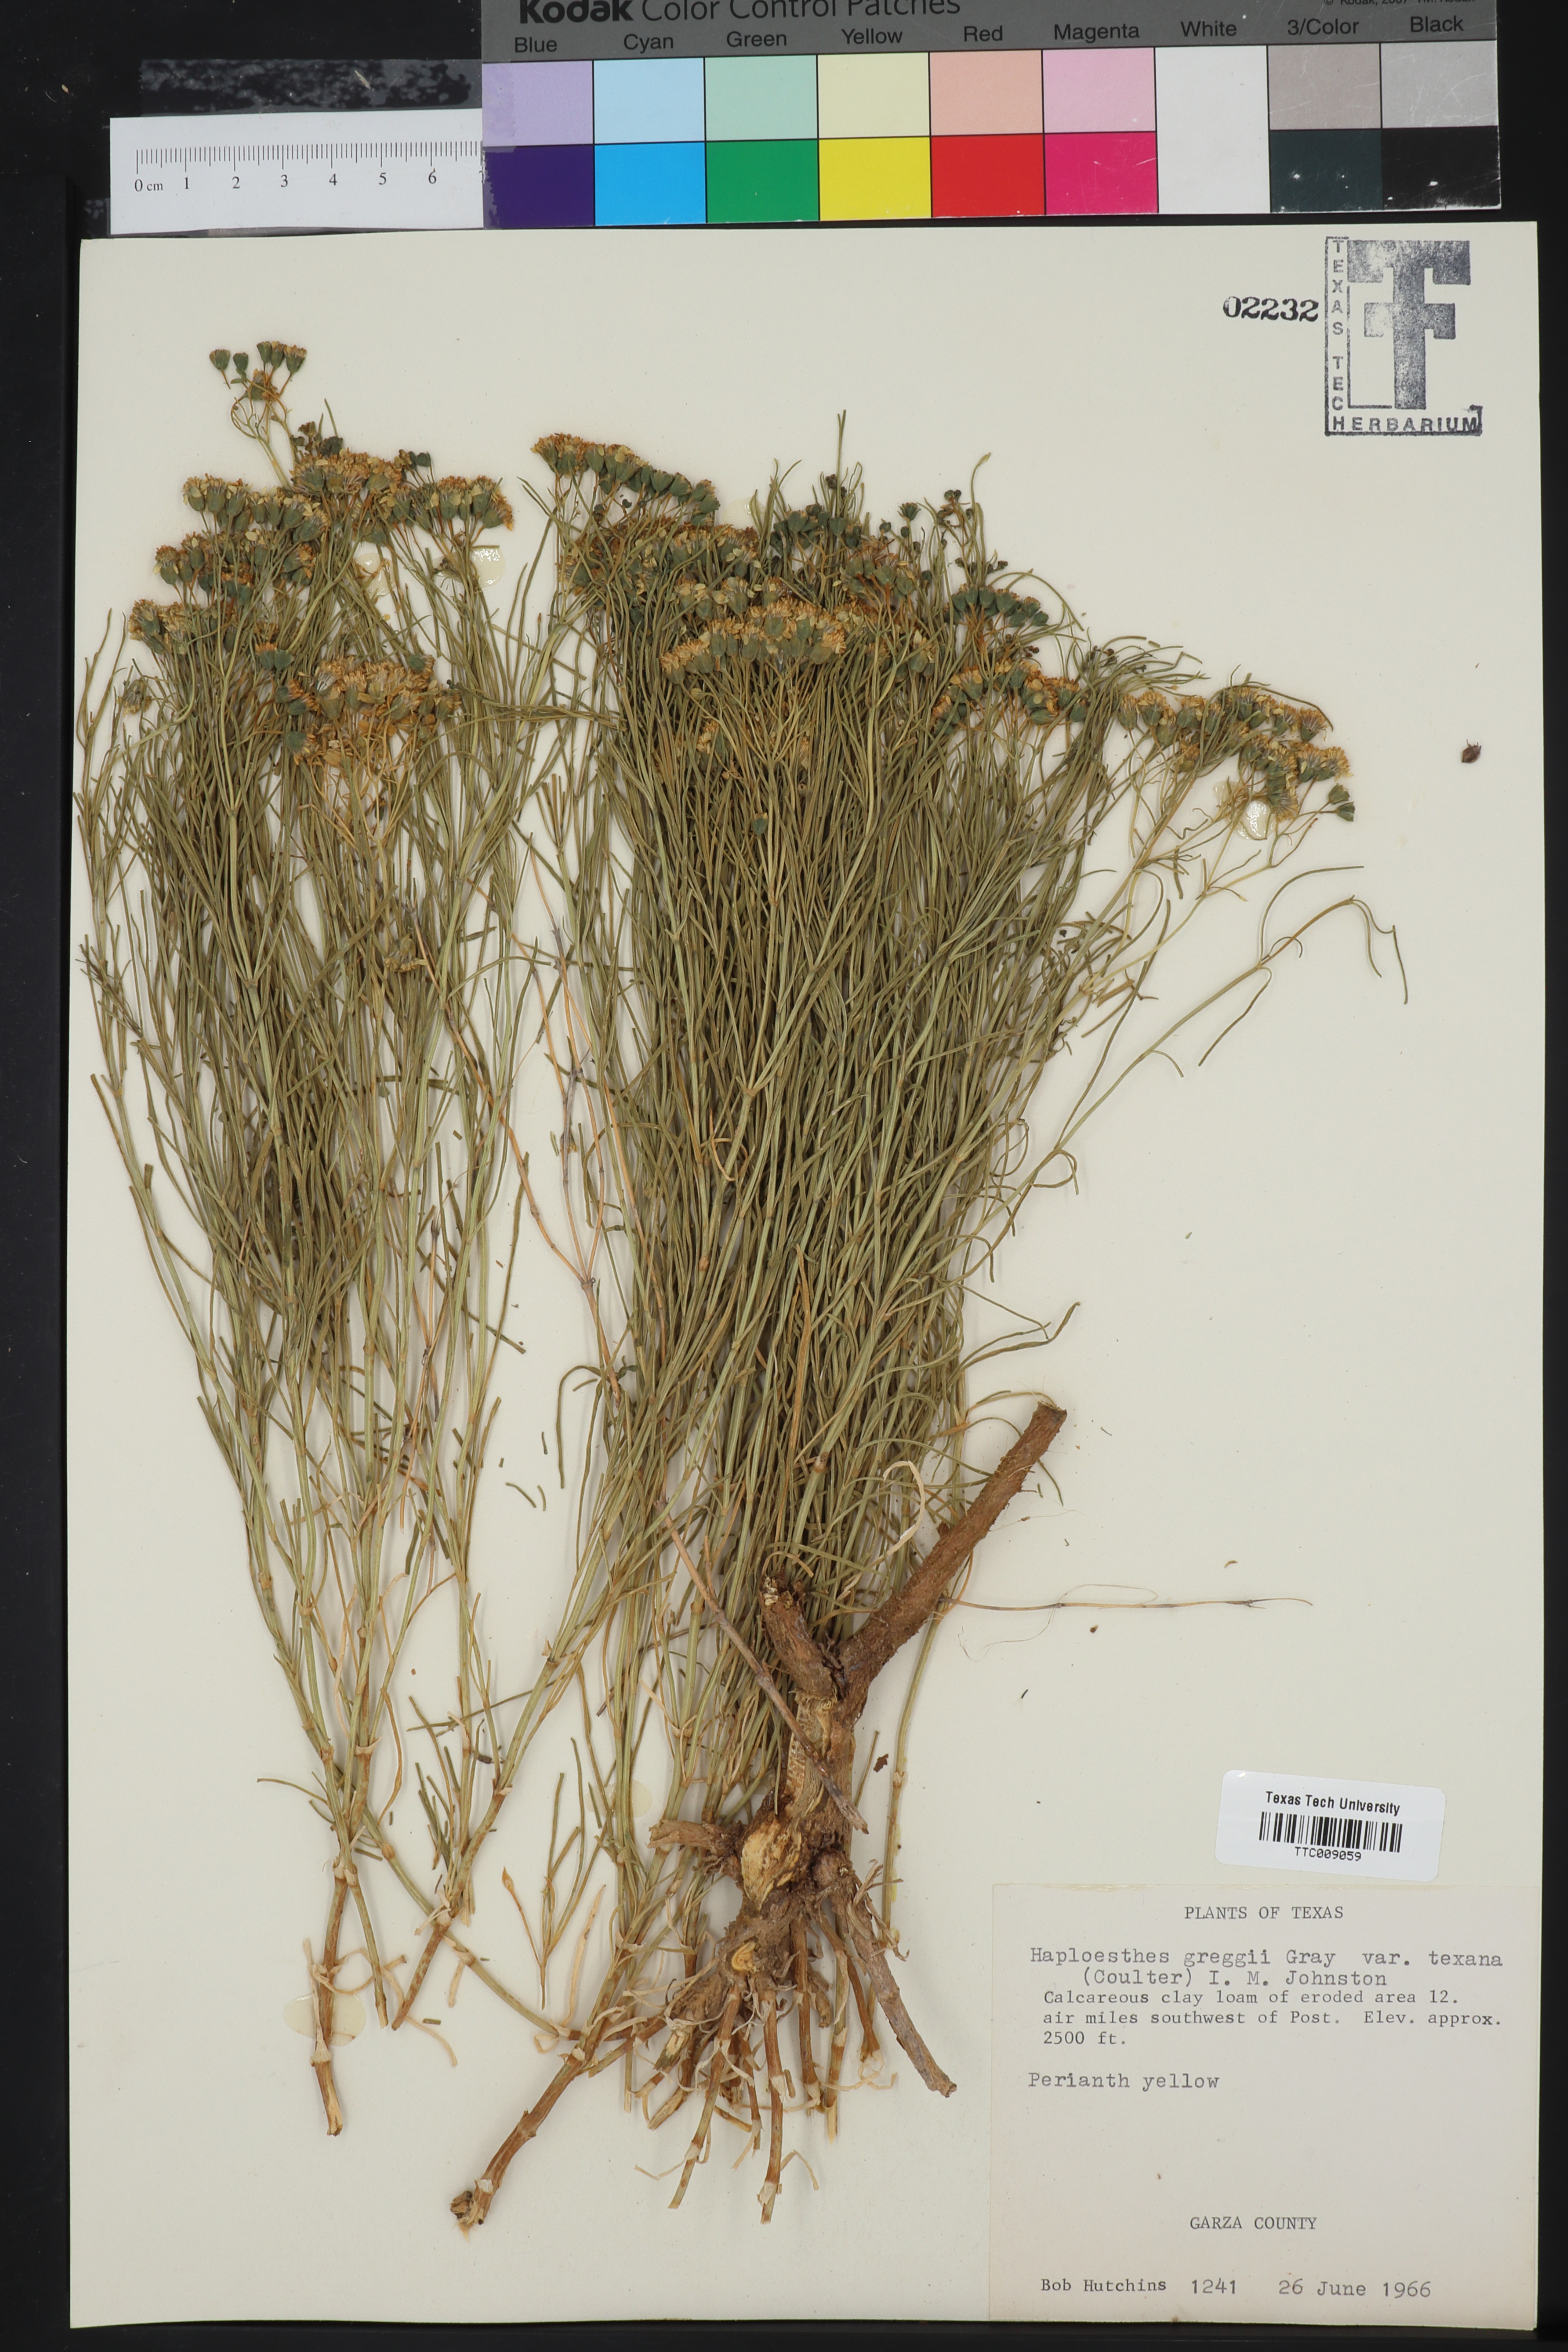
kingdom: Plantae
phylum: Tracheophyta
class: Magnoliopsida
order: Asterales
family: Asteraceae
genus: Haploesthes
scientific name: Haploesthes greggii
